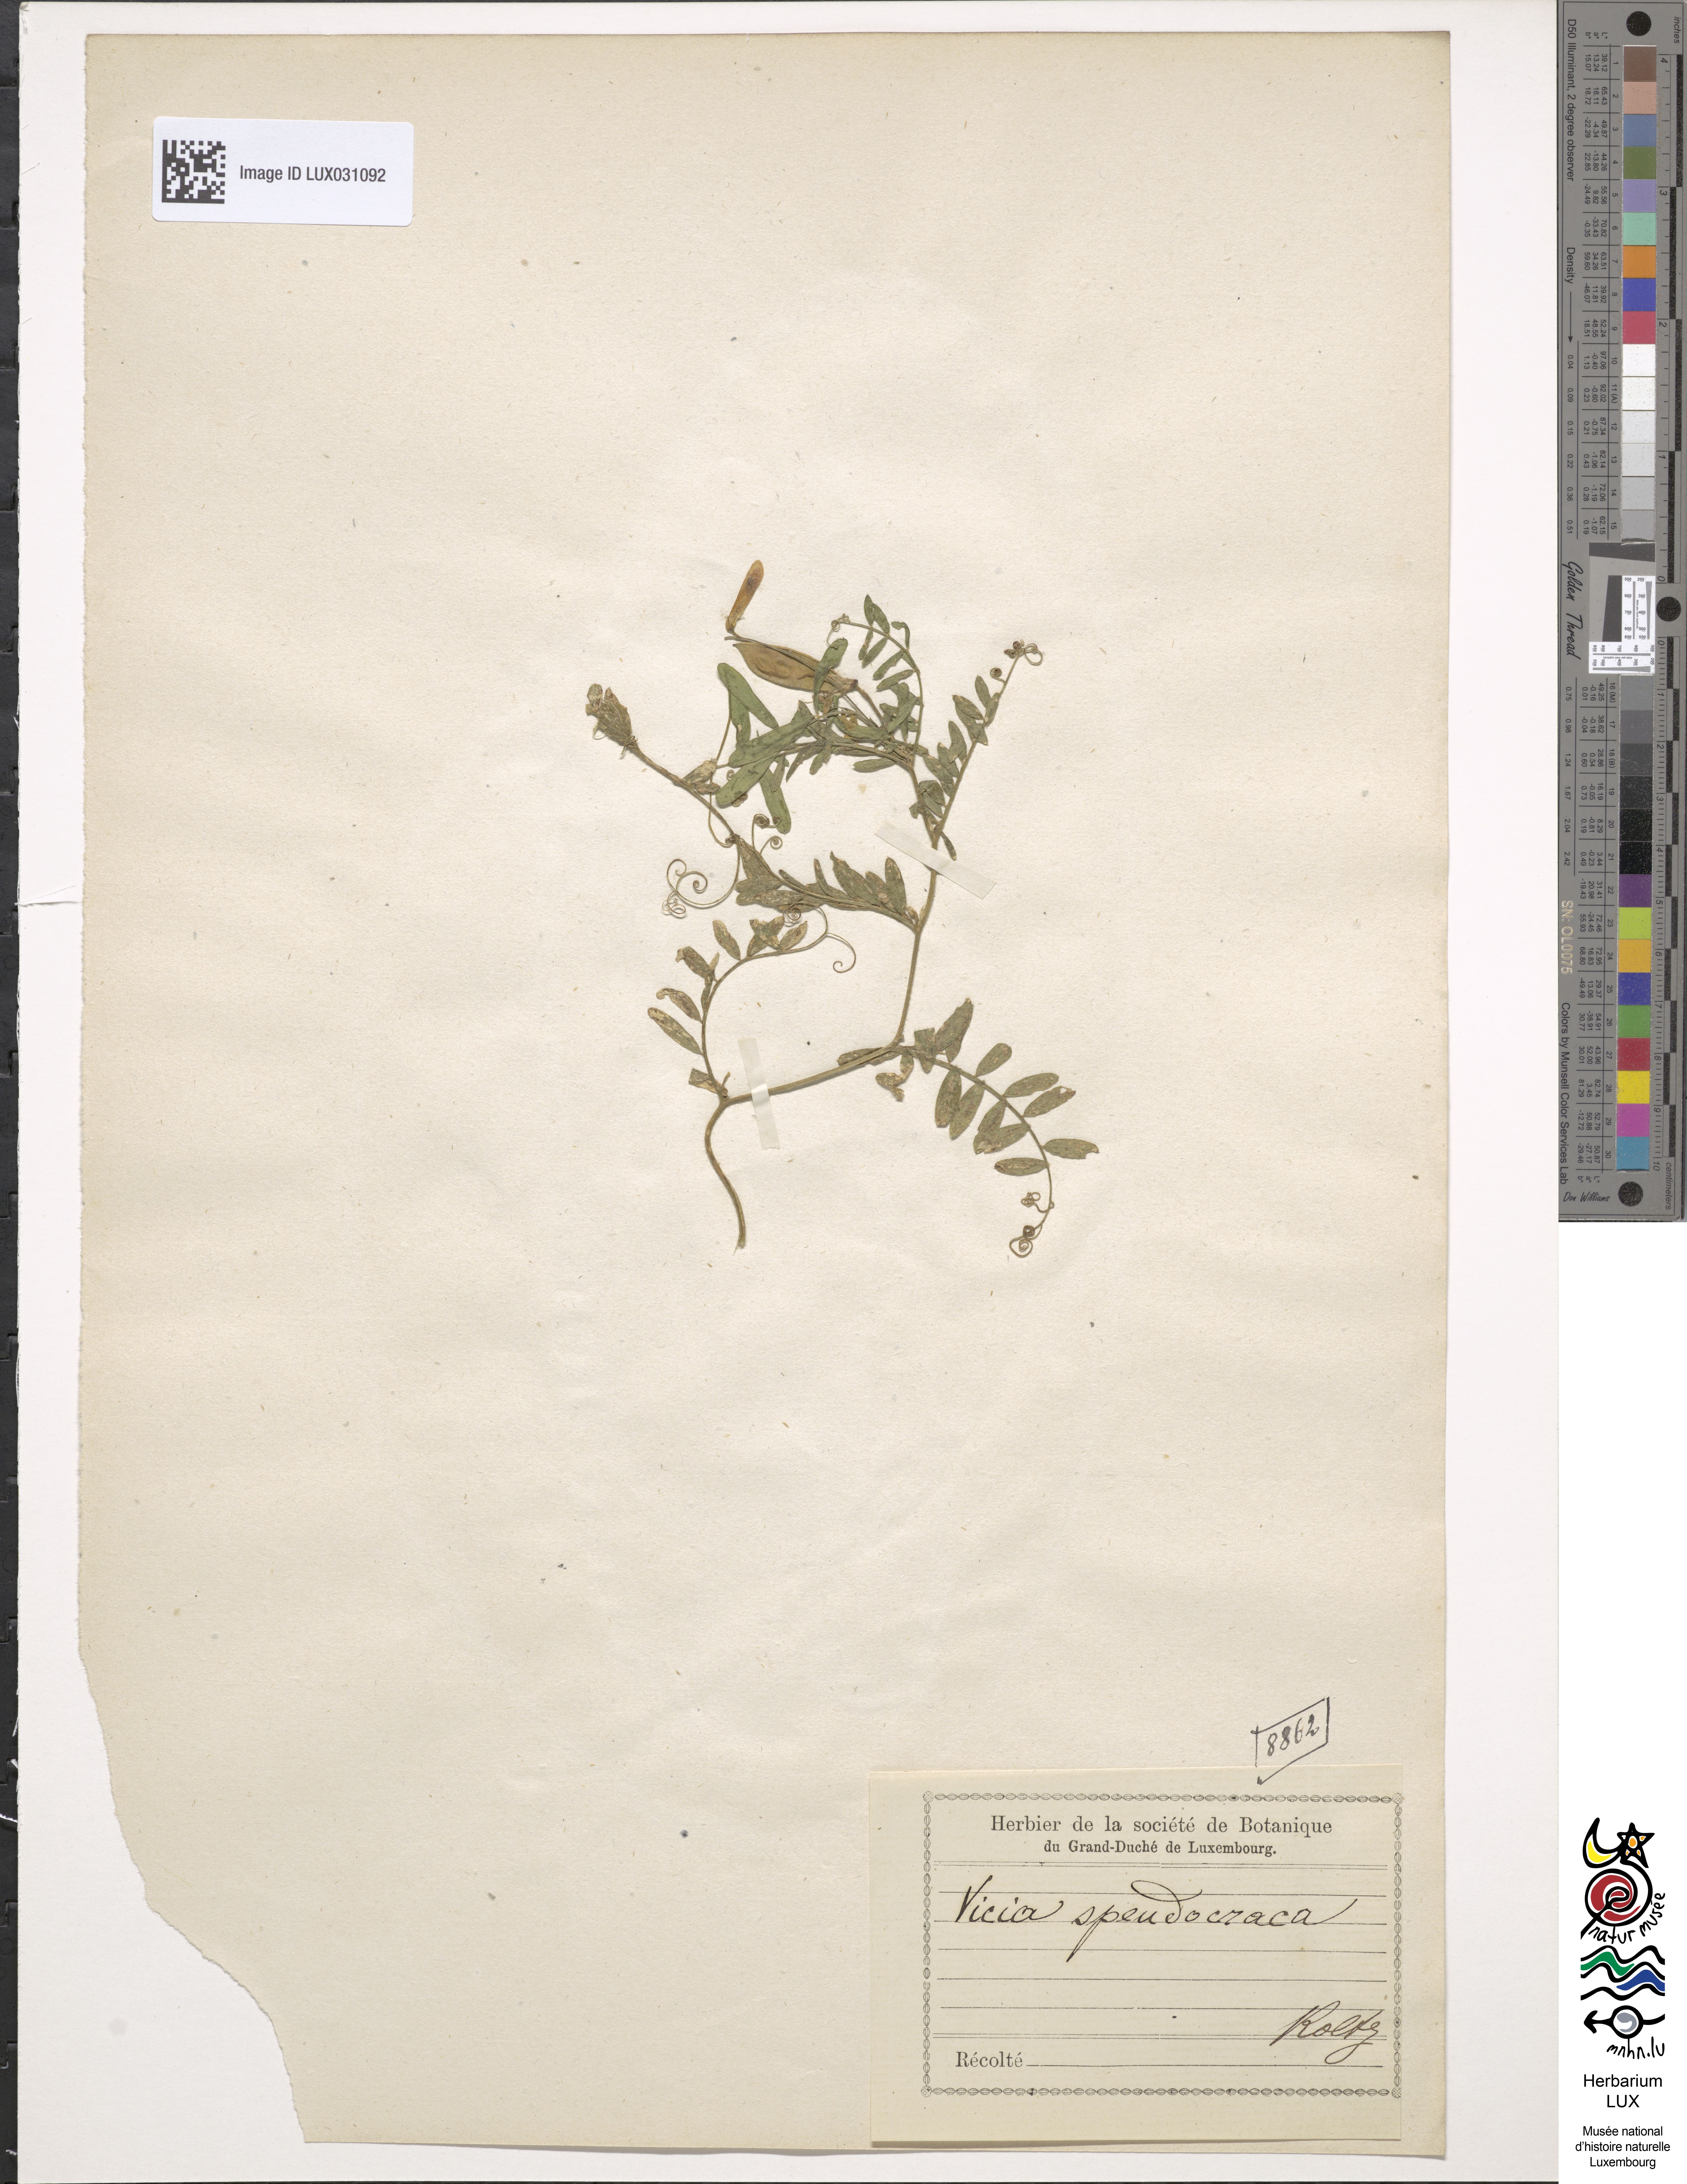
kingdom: Plantae
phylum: Tracheophyta
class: Magnoliopsida
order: Fabales
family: Fabaceae
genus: Vicia
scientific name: Vicia villosa
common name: Fodder vetch
